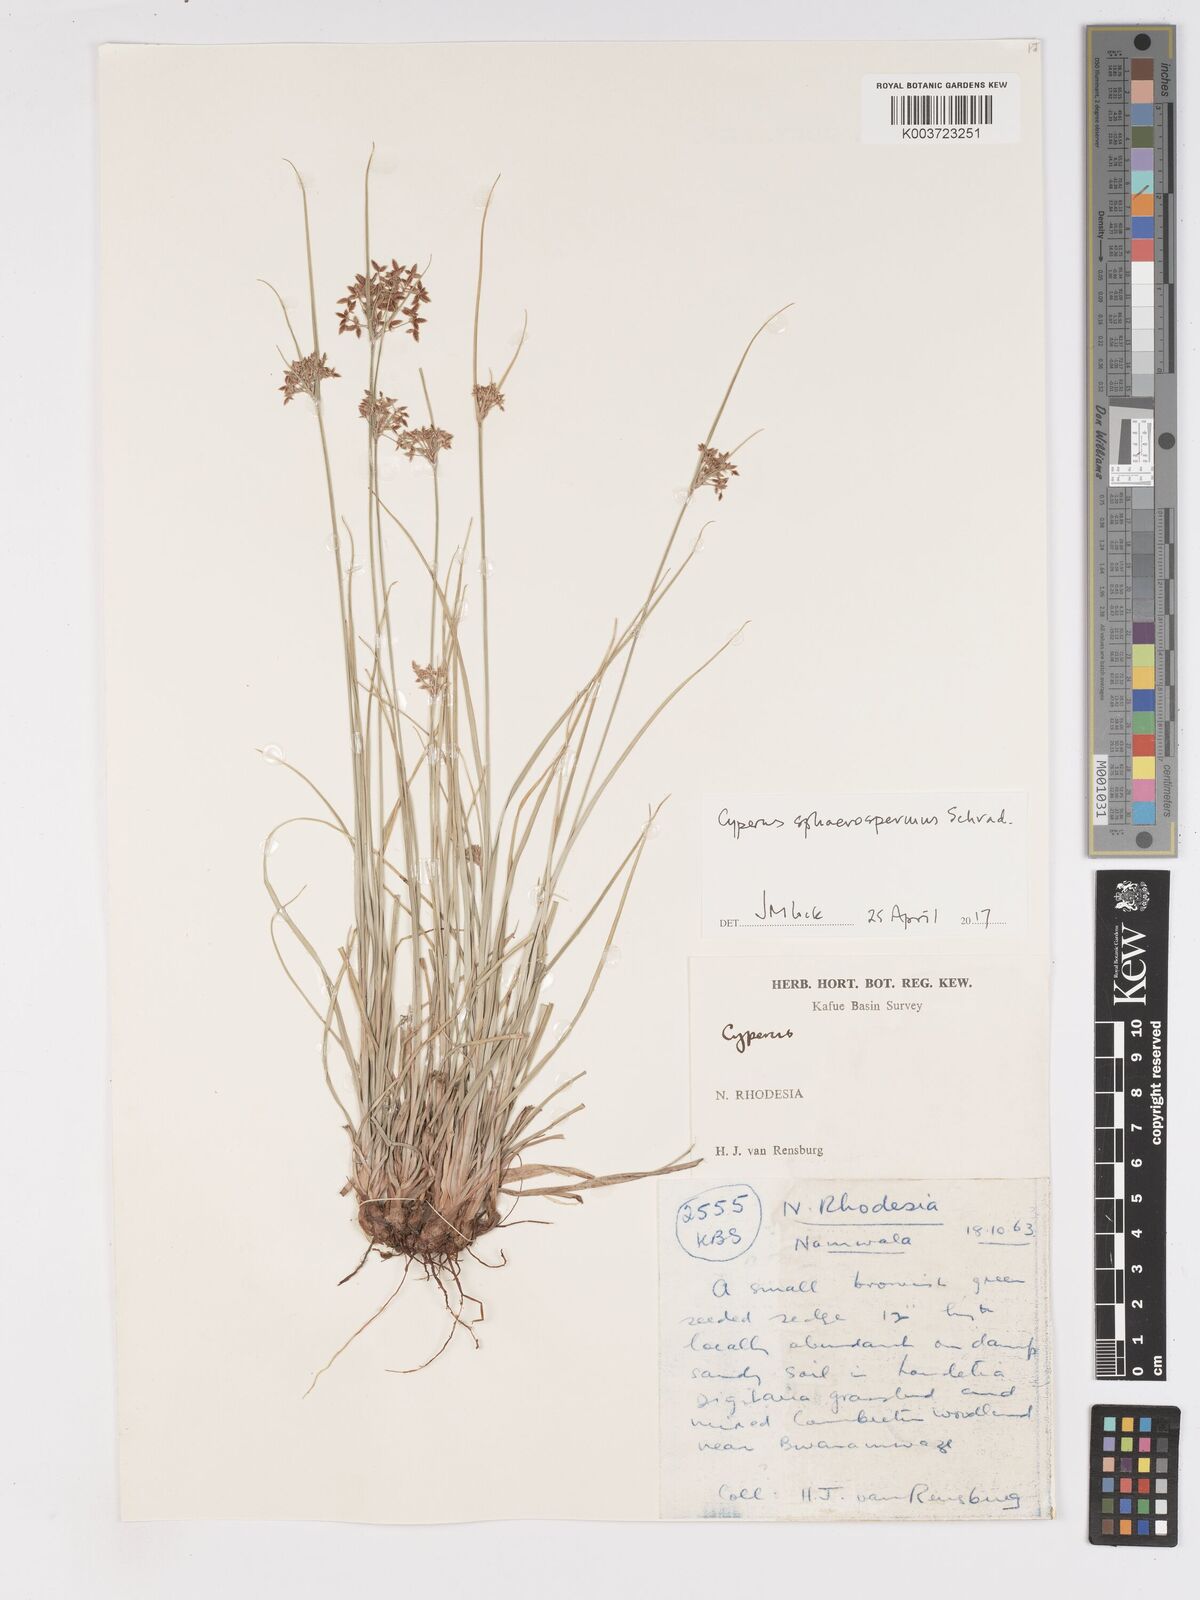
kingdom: Plantae
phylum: Tracheophyta
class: Liliopsida
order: Poales
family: Cyperaceae
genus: Cyperus
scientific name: Cyperus denudatus
